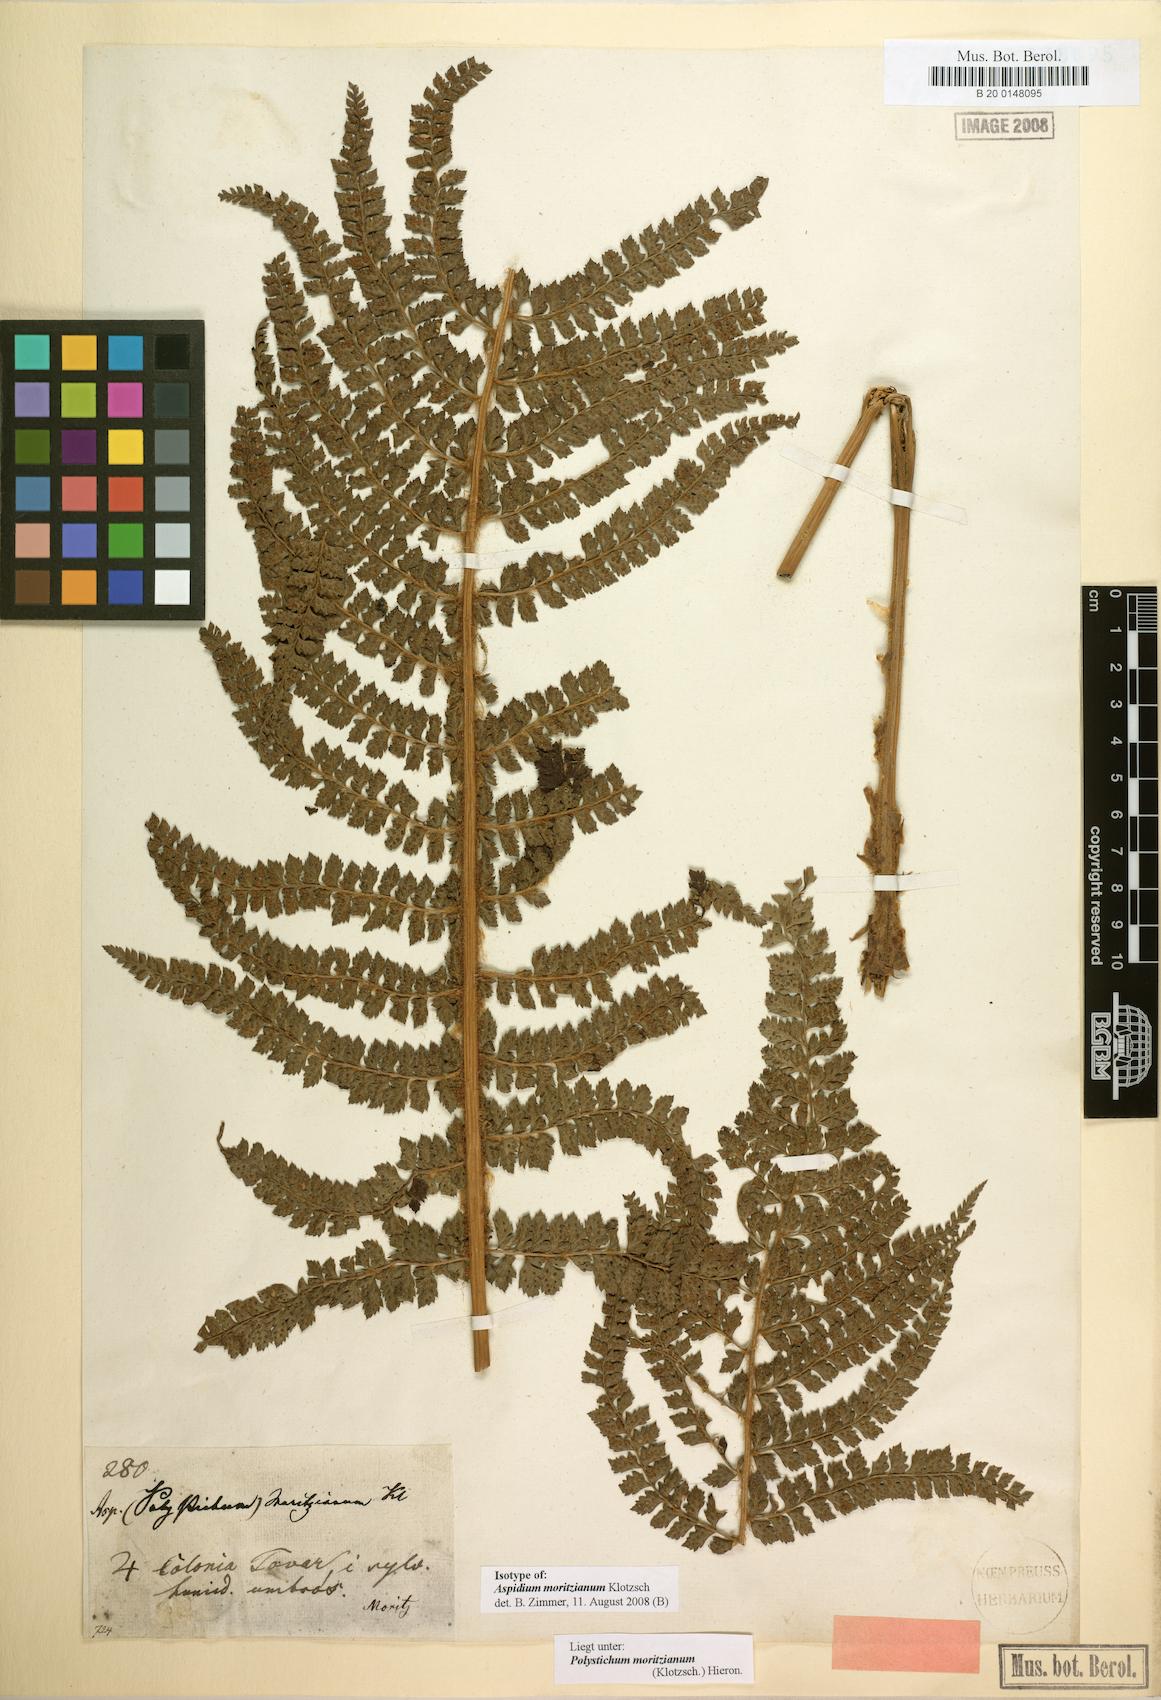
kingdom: Plantae
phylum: Tracheophyta
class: Polypodiopsida
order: Polypodiales
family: Dryopteridaceae
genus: Polystichum
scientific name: Polystichum muricatum
